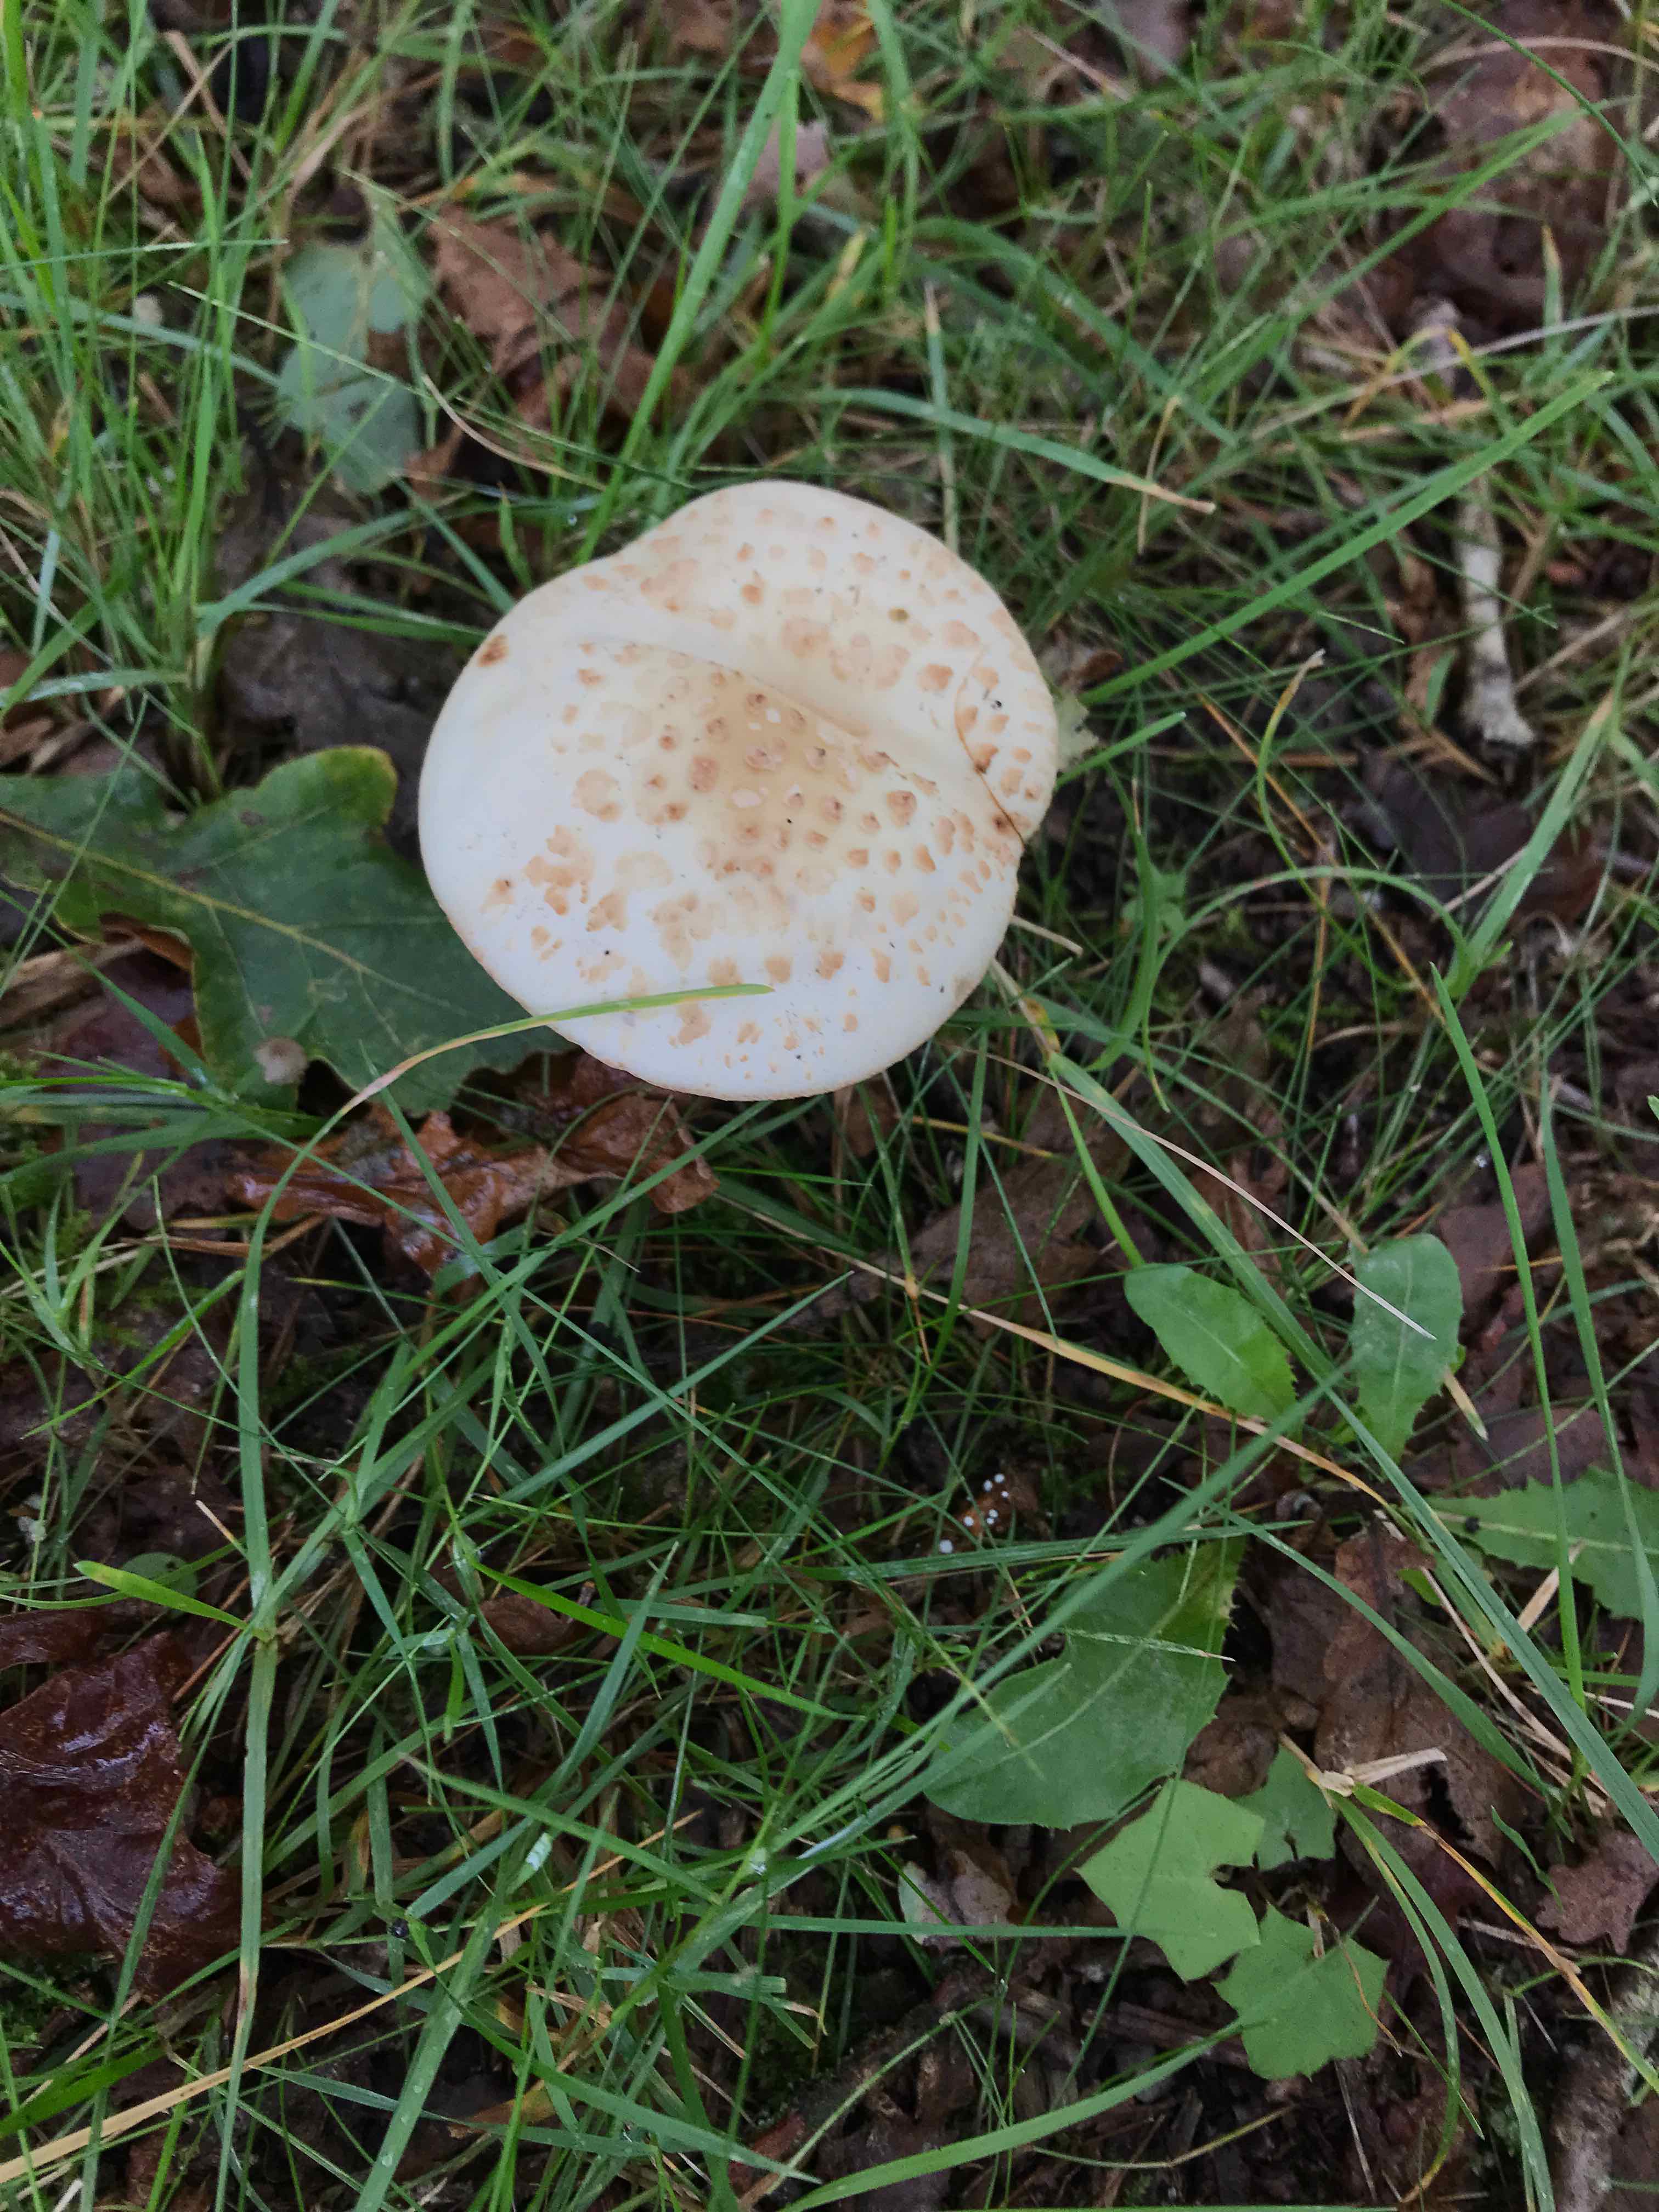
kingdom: Fungi
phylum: Basidiomycota
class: Agaricomycetes
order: Agaricales
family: Amanitaceae
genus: Amanita
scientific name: Amanita citrina
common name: kugleknoldet fluesvamp
